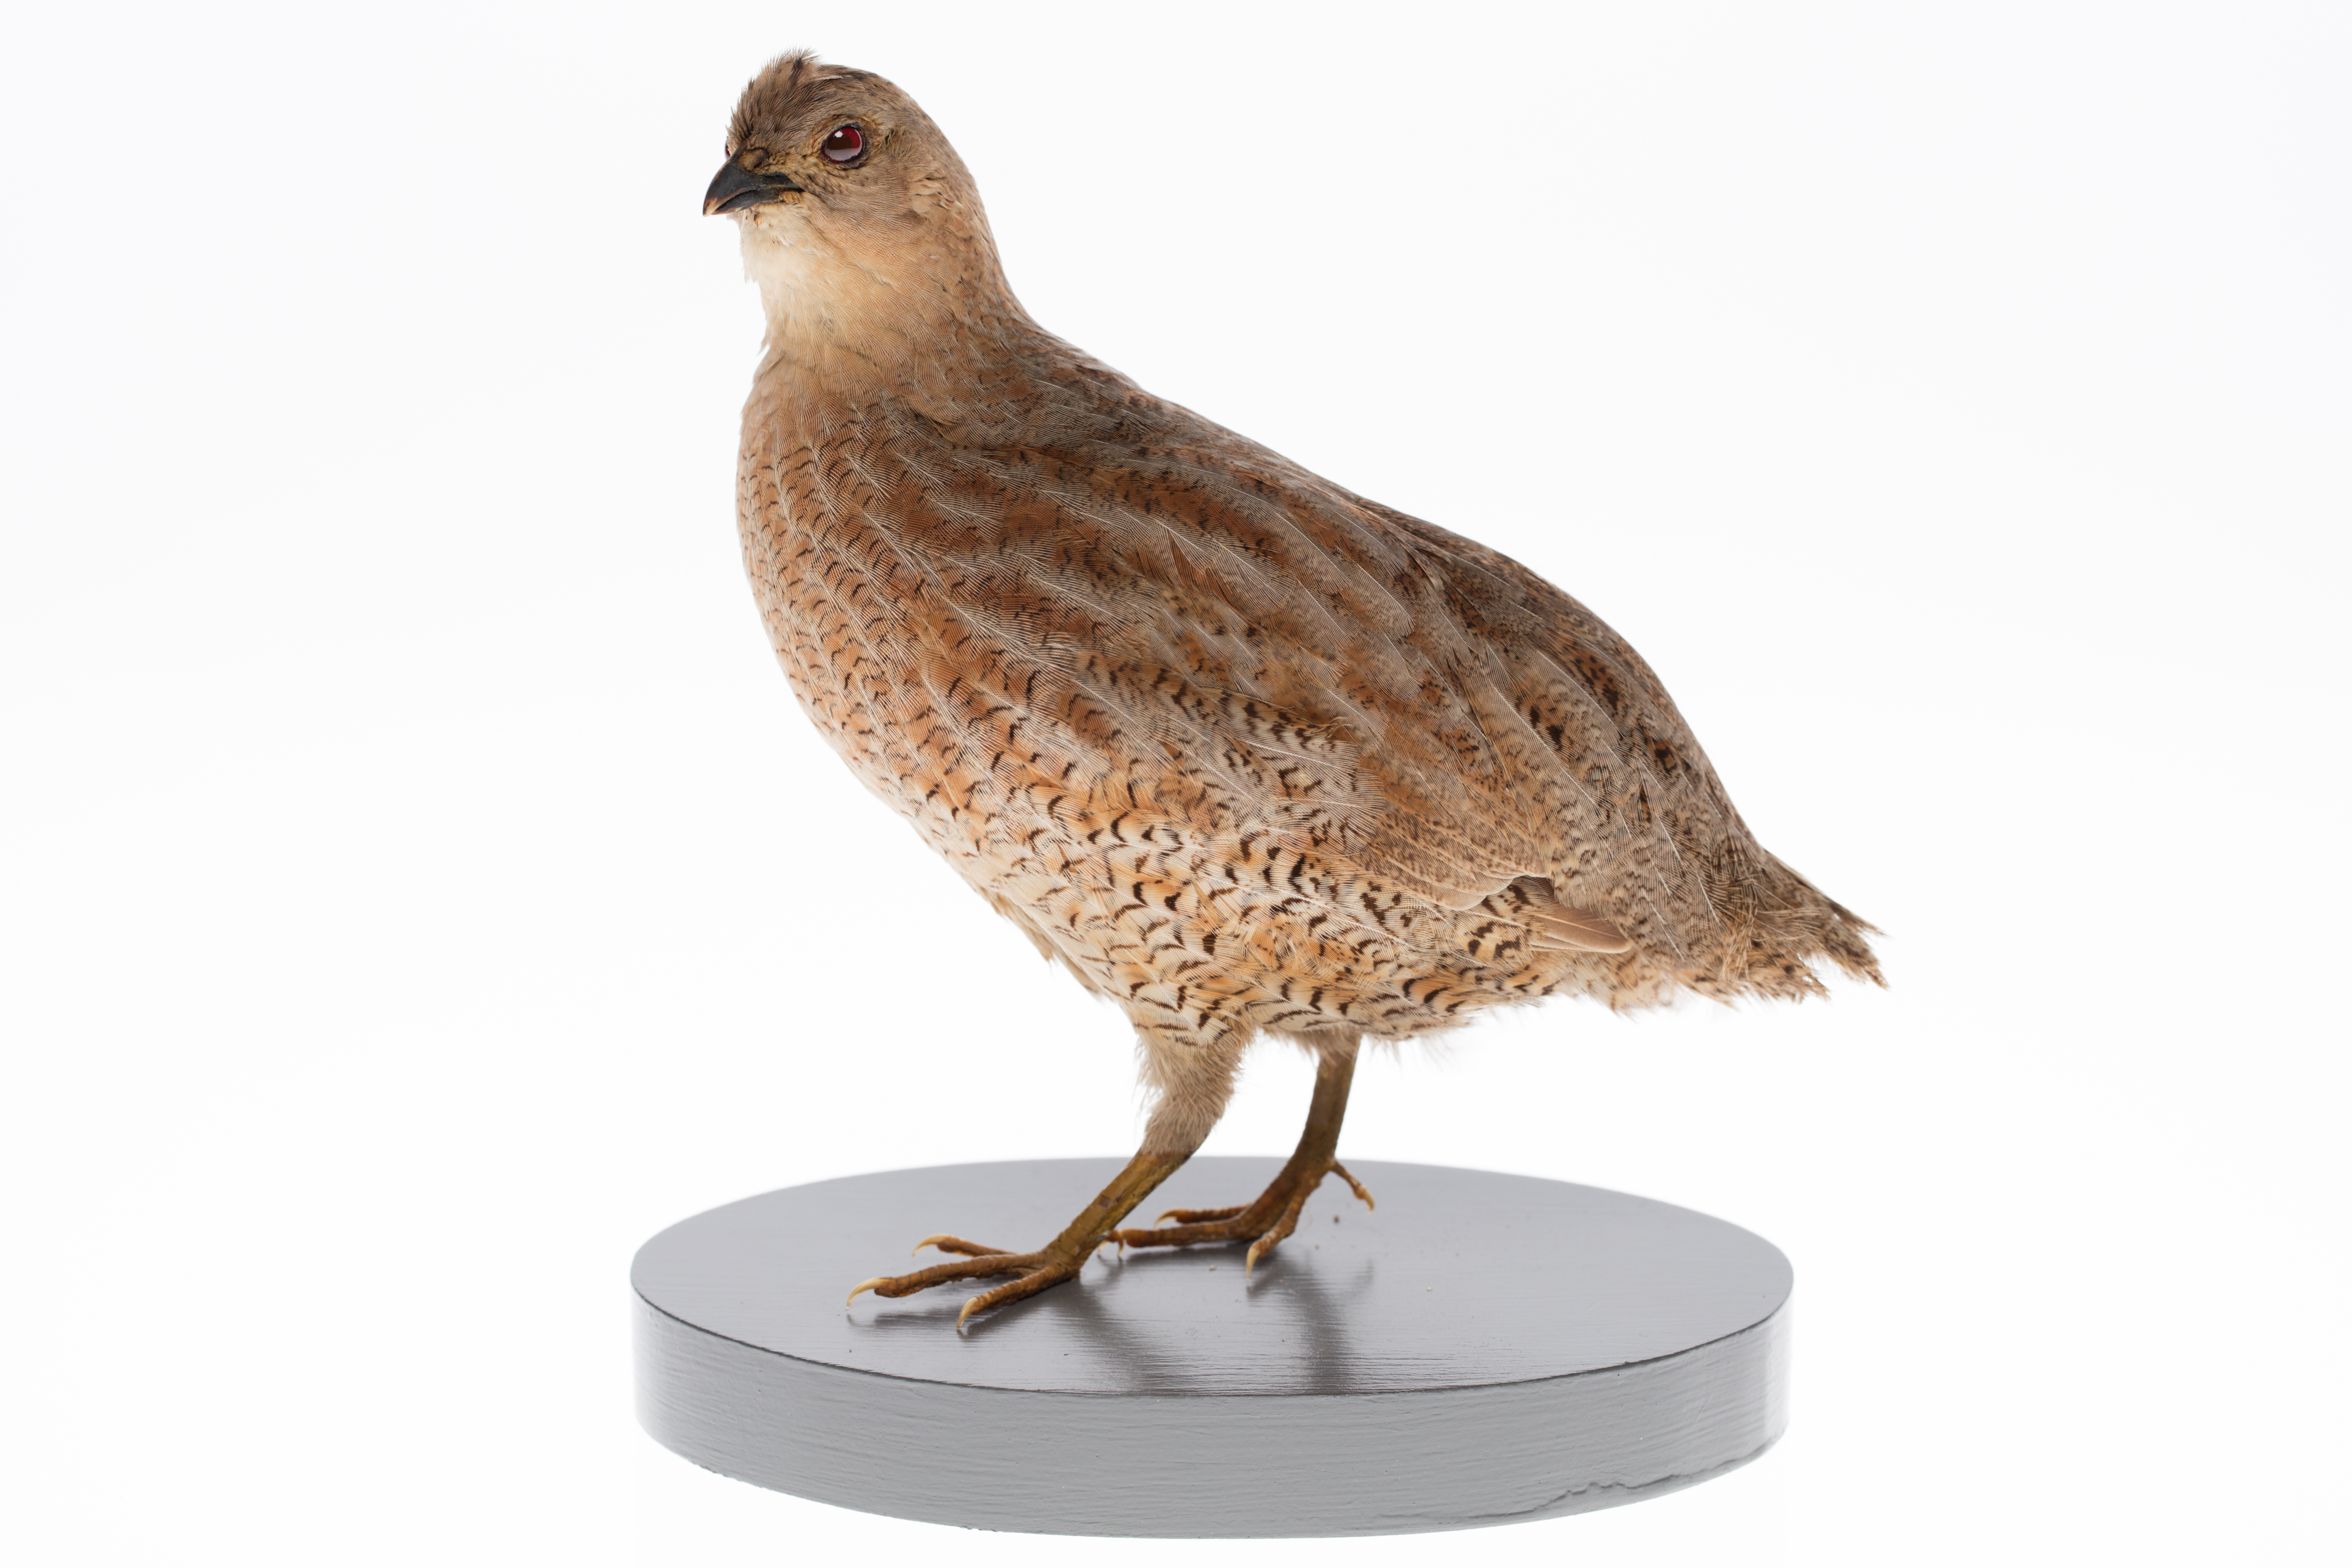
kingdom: Animalia
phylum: Chordata
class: Aves
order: Galliformes
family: Phasianidae
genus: Synoicus
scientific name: Synoicus ypsilophorus
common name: Brown quail
